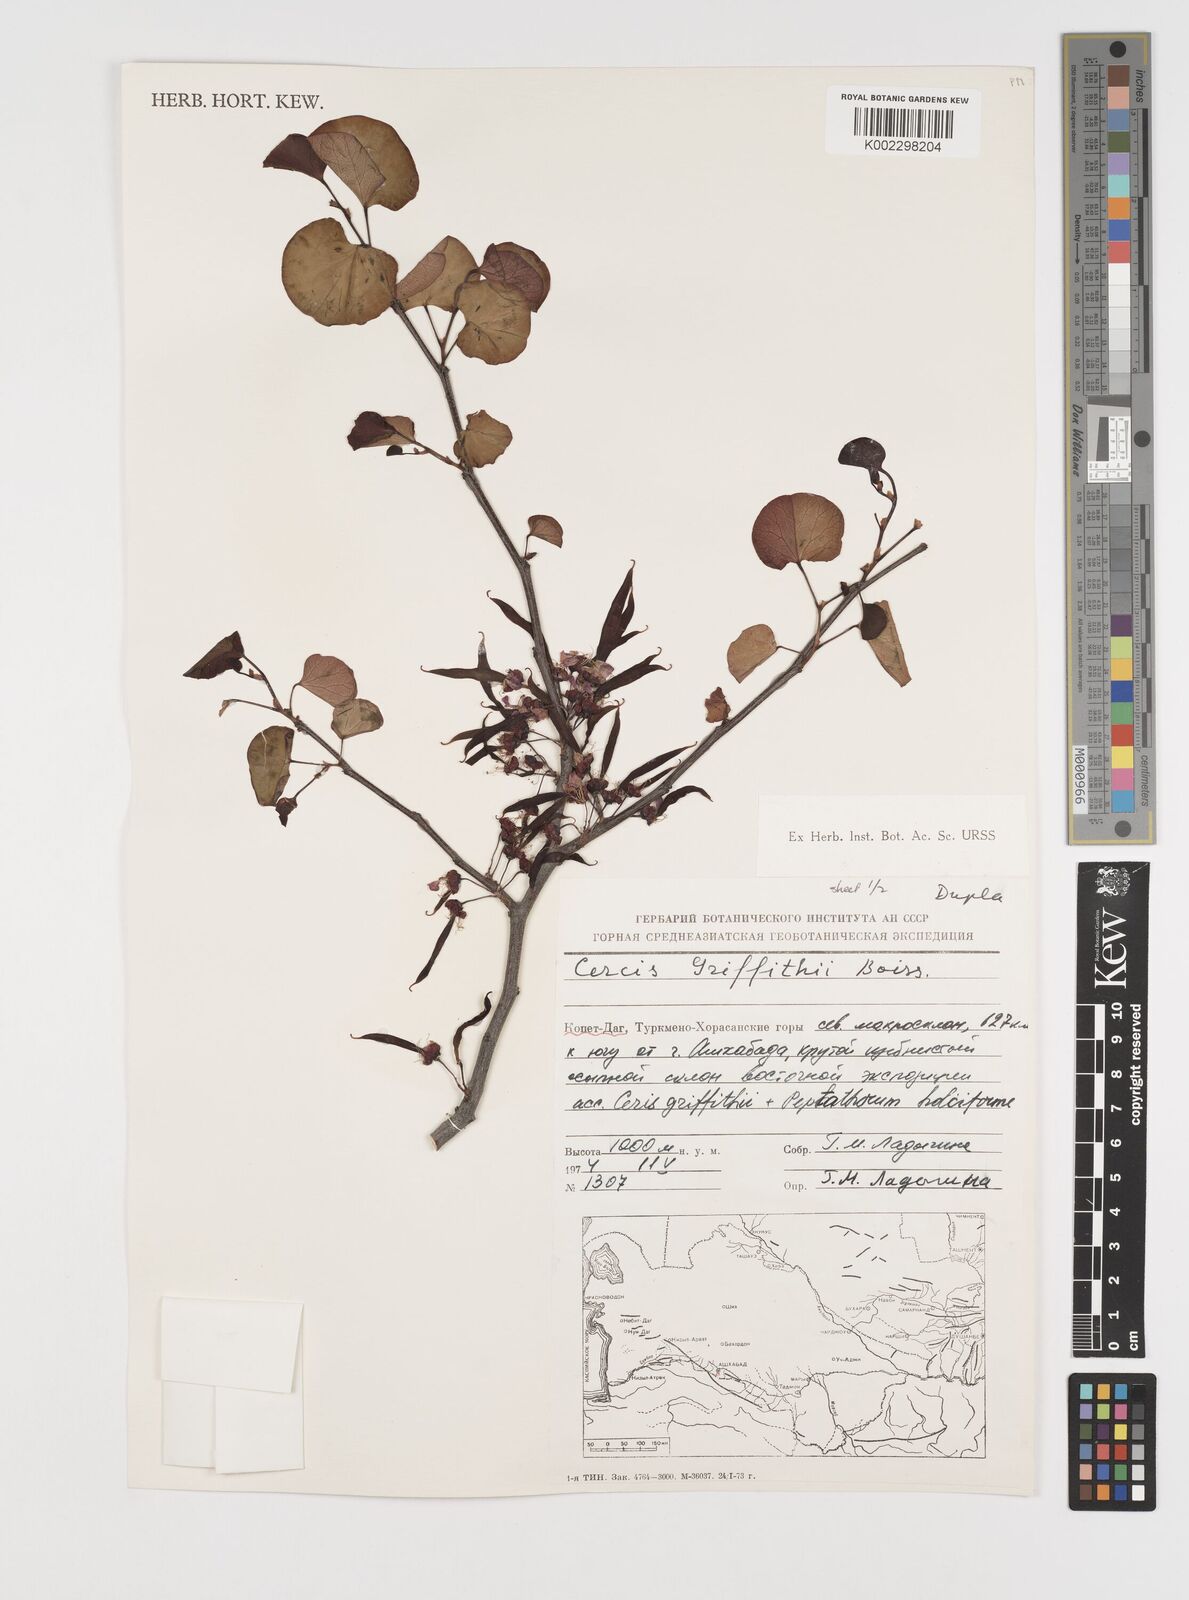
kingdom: Plantae
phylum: Tracheophyta
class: Magnoliopsida
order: Fabales
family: Fabaceae
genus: Cercis
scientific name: Cercis griffithii
